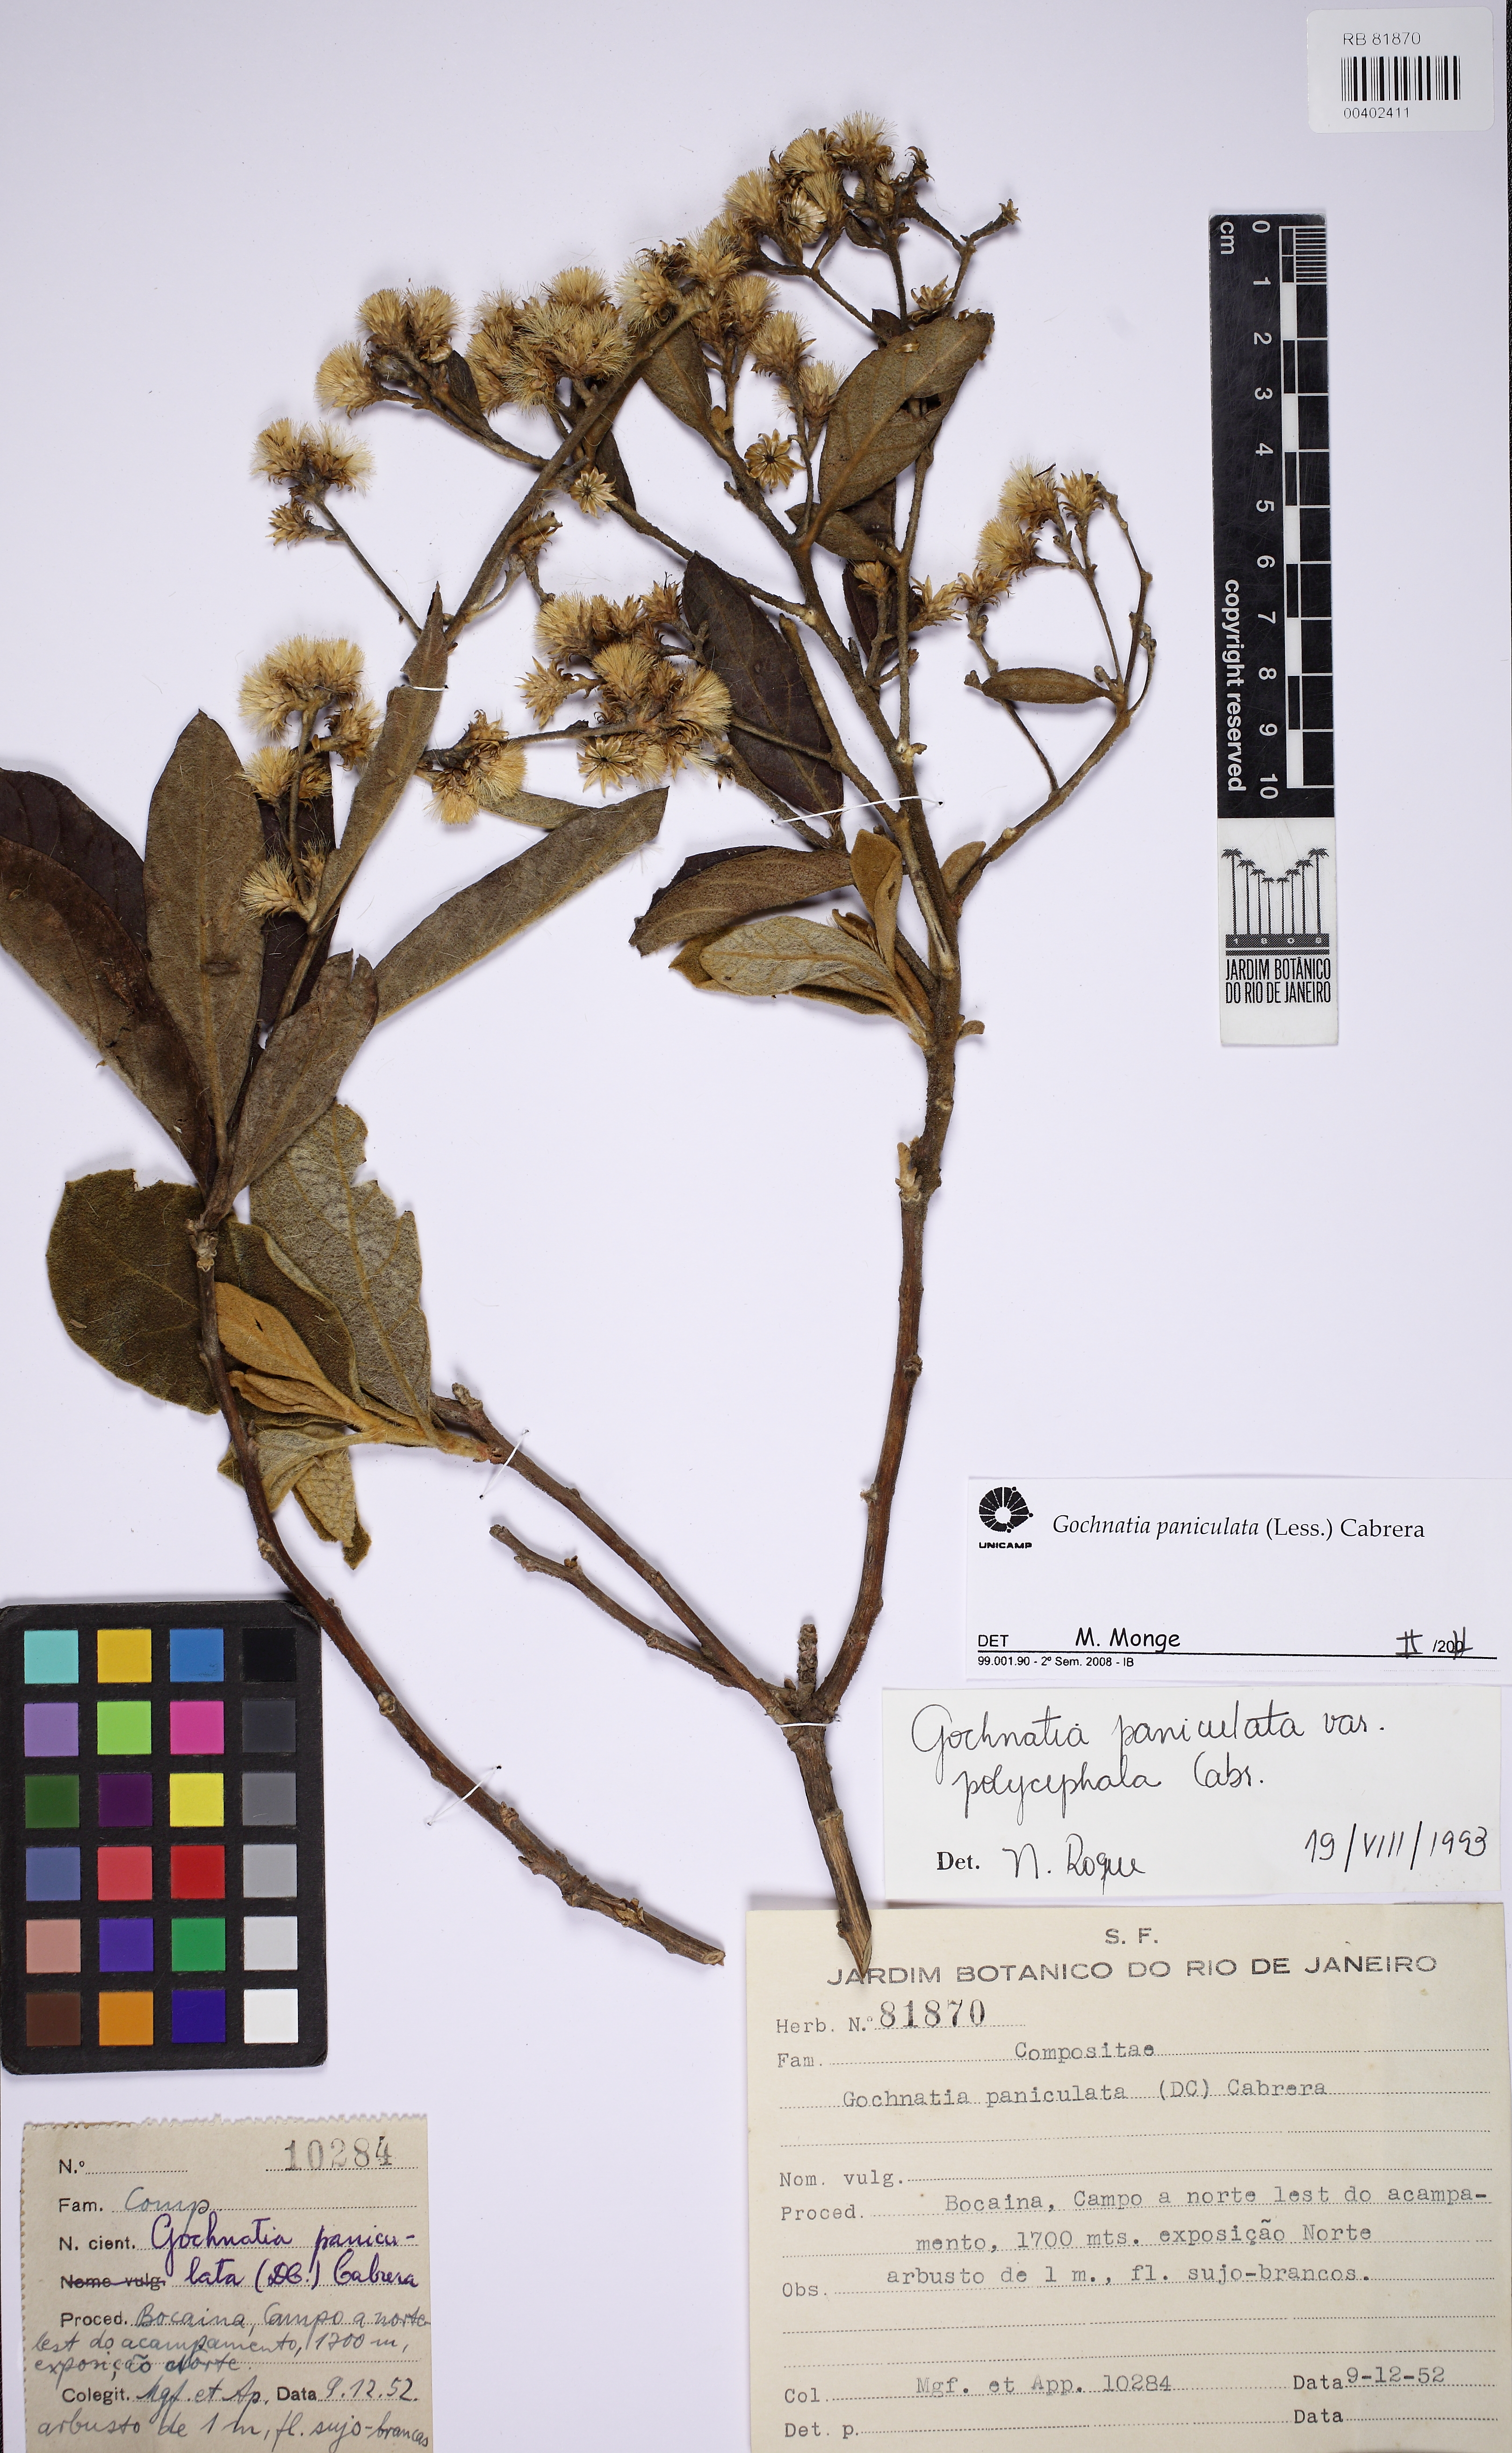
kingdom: Plantae
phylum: Tracheophyta
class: Magnoliopsida
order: Asterales
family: Asteraceae
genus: Moquiniastrum
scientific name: Moquiniastrum paniculatum
